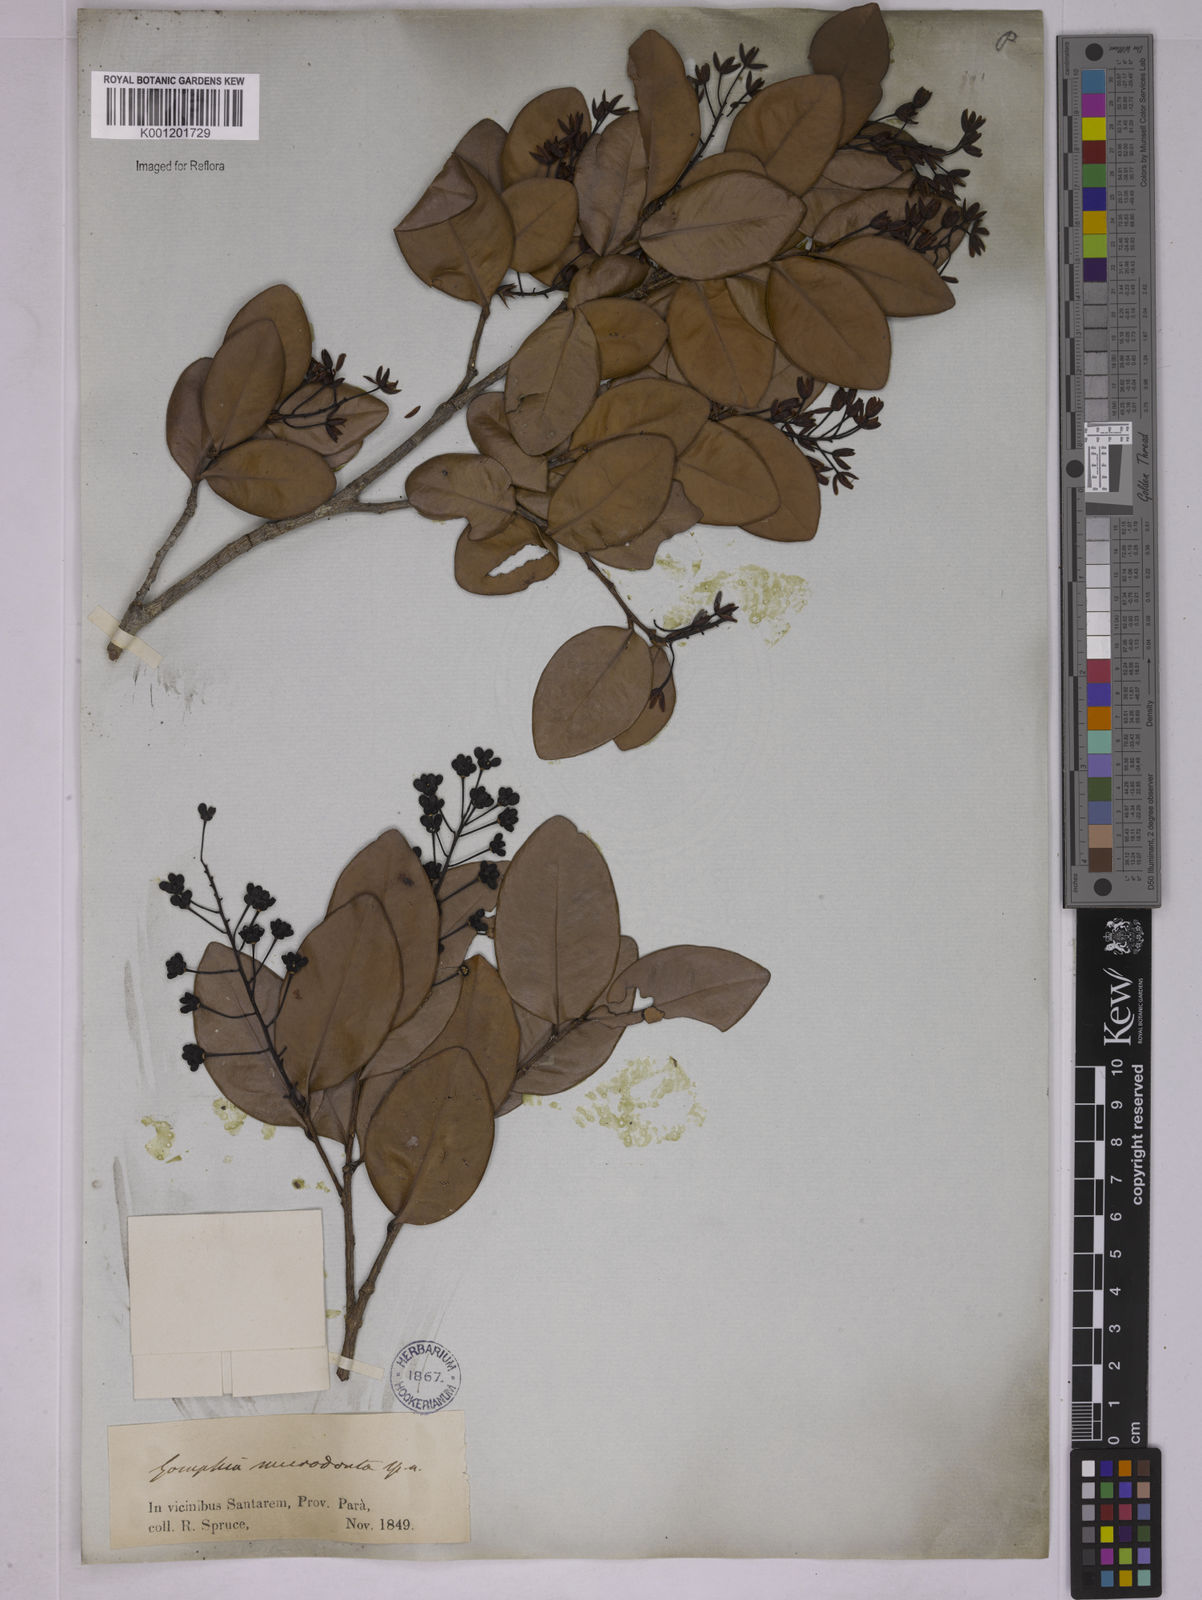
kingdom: Plantae
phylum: Tracheophyta
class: Magnoliopsida
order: Malpighiales
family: Ochnaceae
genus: Ouratea
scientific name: Ouratea microdonta
